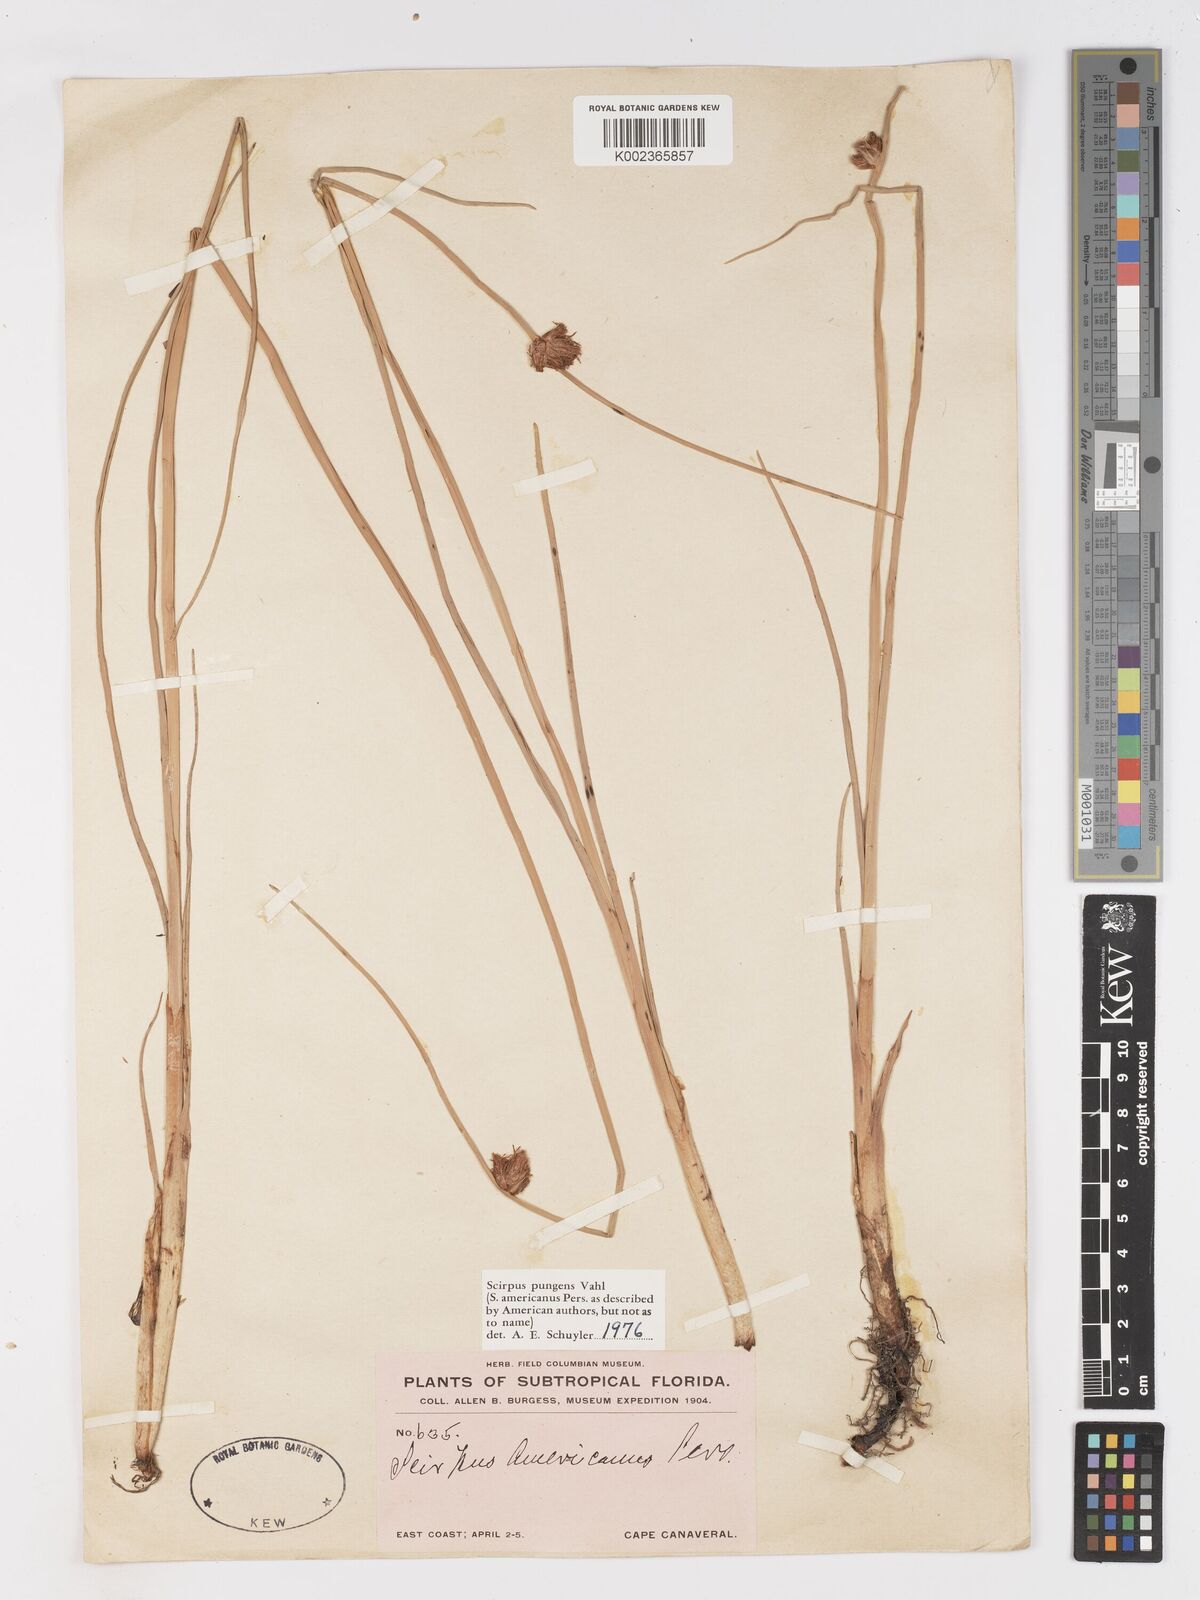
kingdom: Plantae
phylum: Tracheophyta
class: Liliopsida
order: Poales
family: Cyperaceae
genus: Schoenoplectus
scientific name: Schoenoplectus pungens
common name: Sharp club-rush
